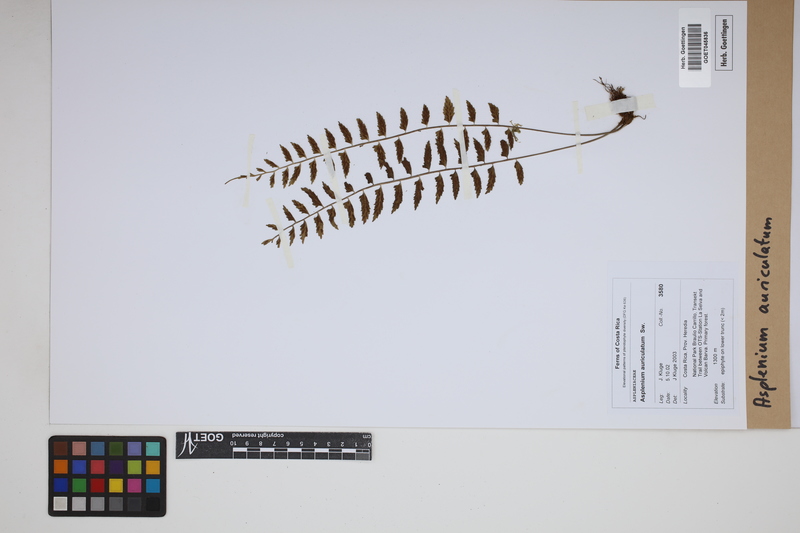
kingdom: Plantae
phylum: Tracheophyta
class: Polypodiopsida
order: Polypodiales
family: Aspleniaceae
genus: Asplenium
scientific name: Asplenium auriculatum
